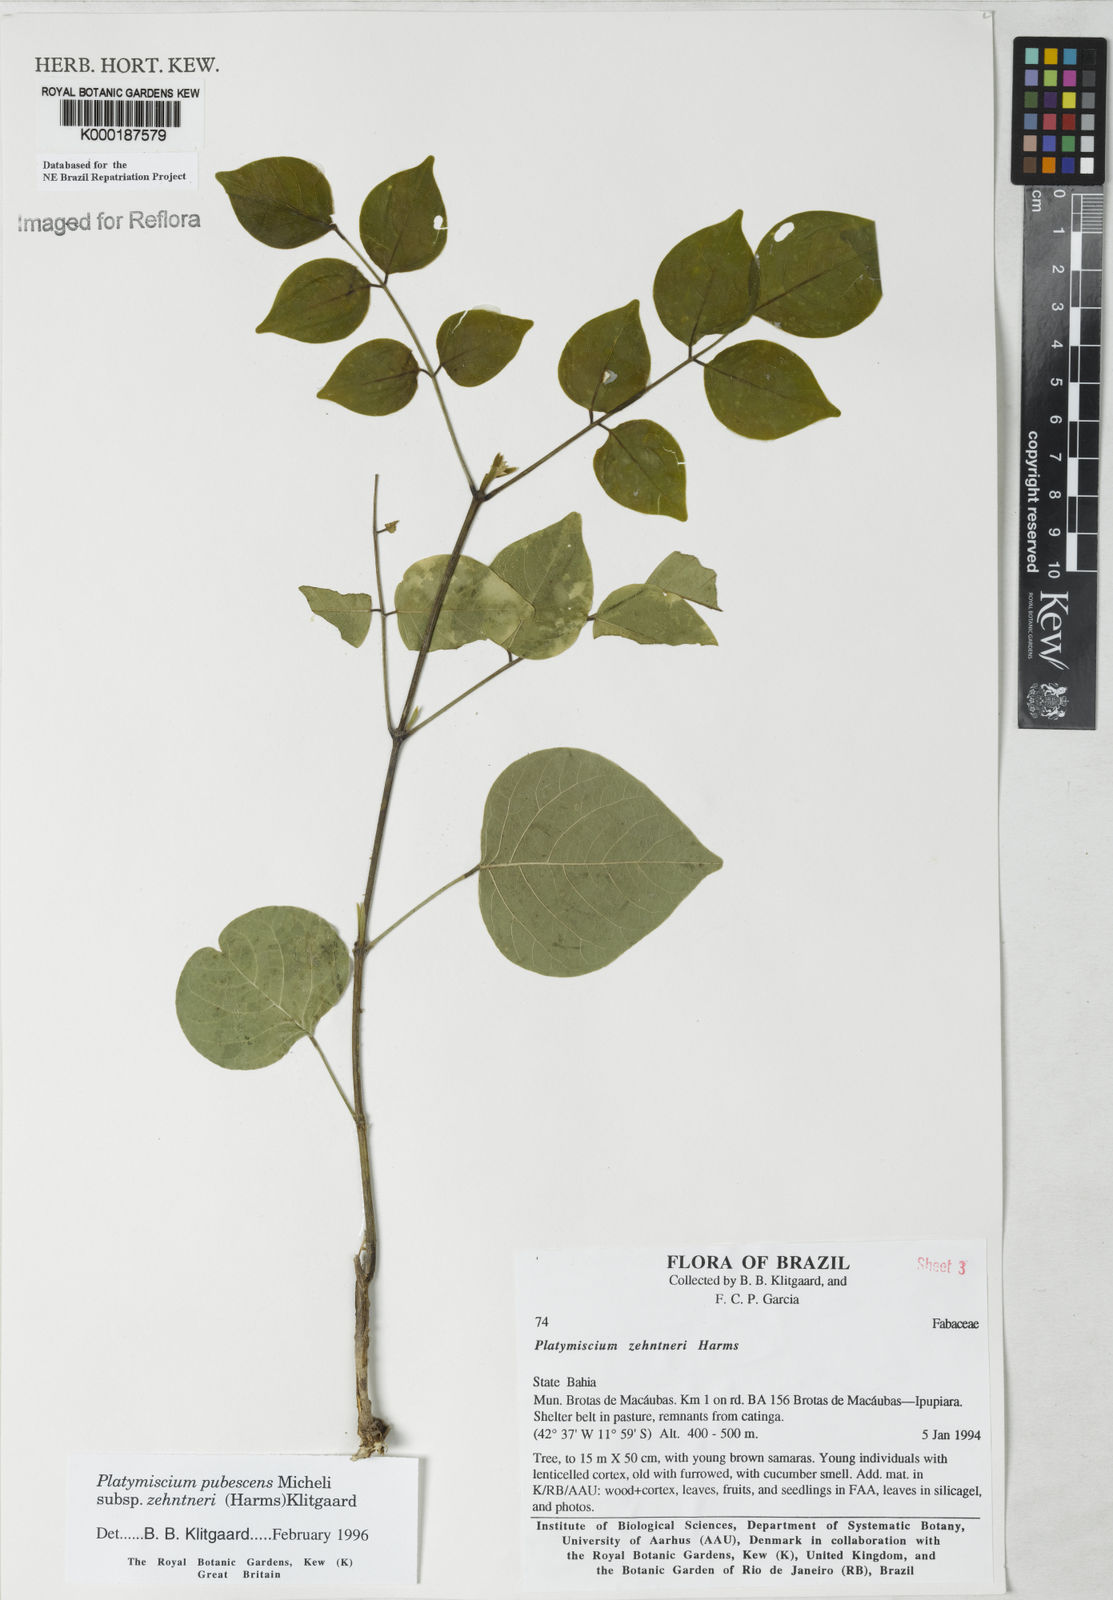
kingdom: Plantae
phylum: Tracheophyta
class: Magnoliopsida
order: Fabales
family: Fabaceae
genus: Platymiscium
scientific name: Platymiscium pubescens
